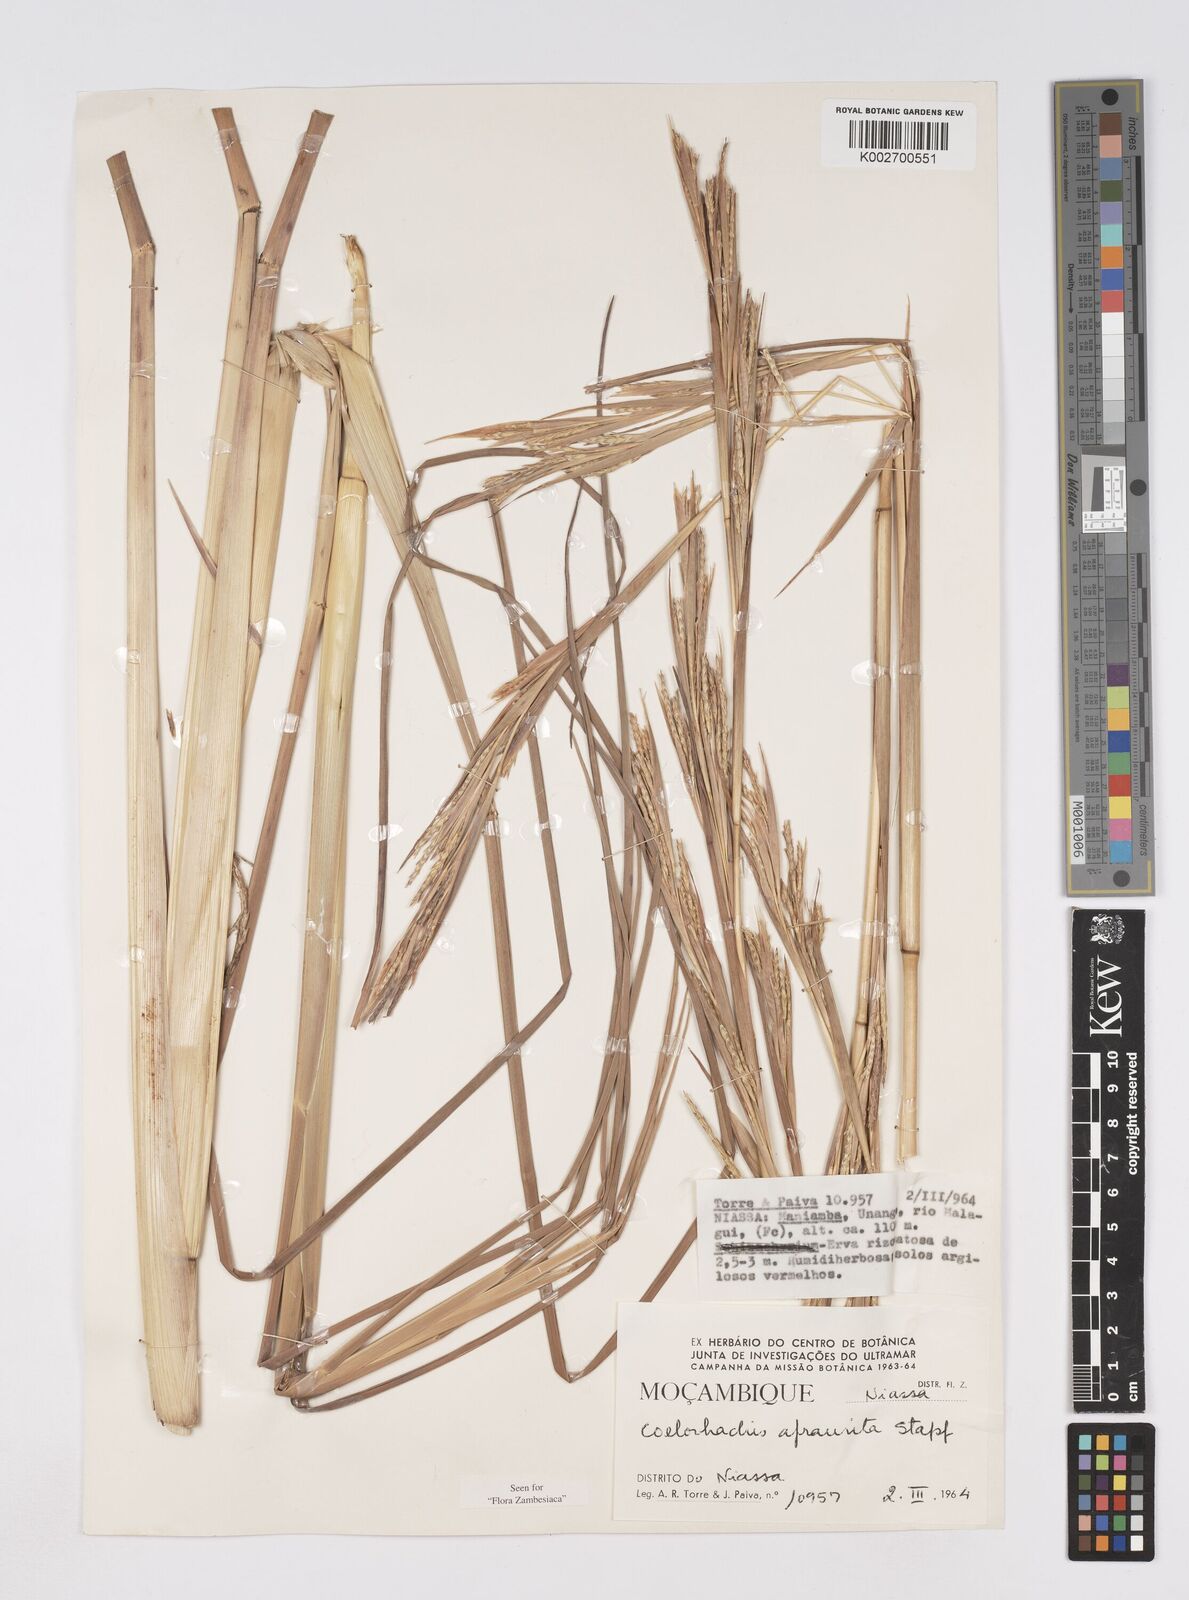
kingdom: Plantae
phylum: Tracheophyta
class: Liliopsida
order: Poales
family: Poaceae
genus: Rottboellia
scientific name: Rottboellia afraurita
